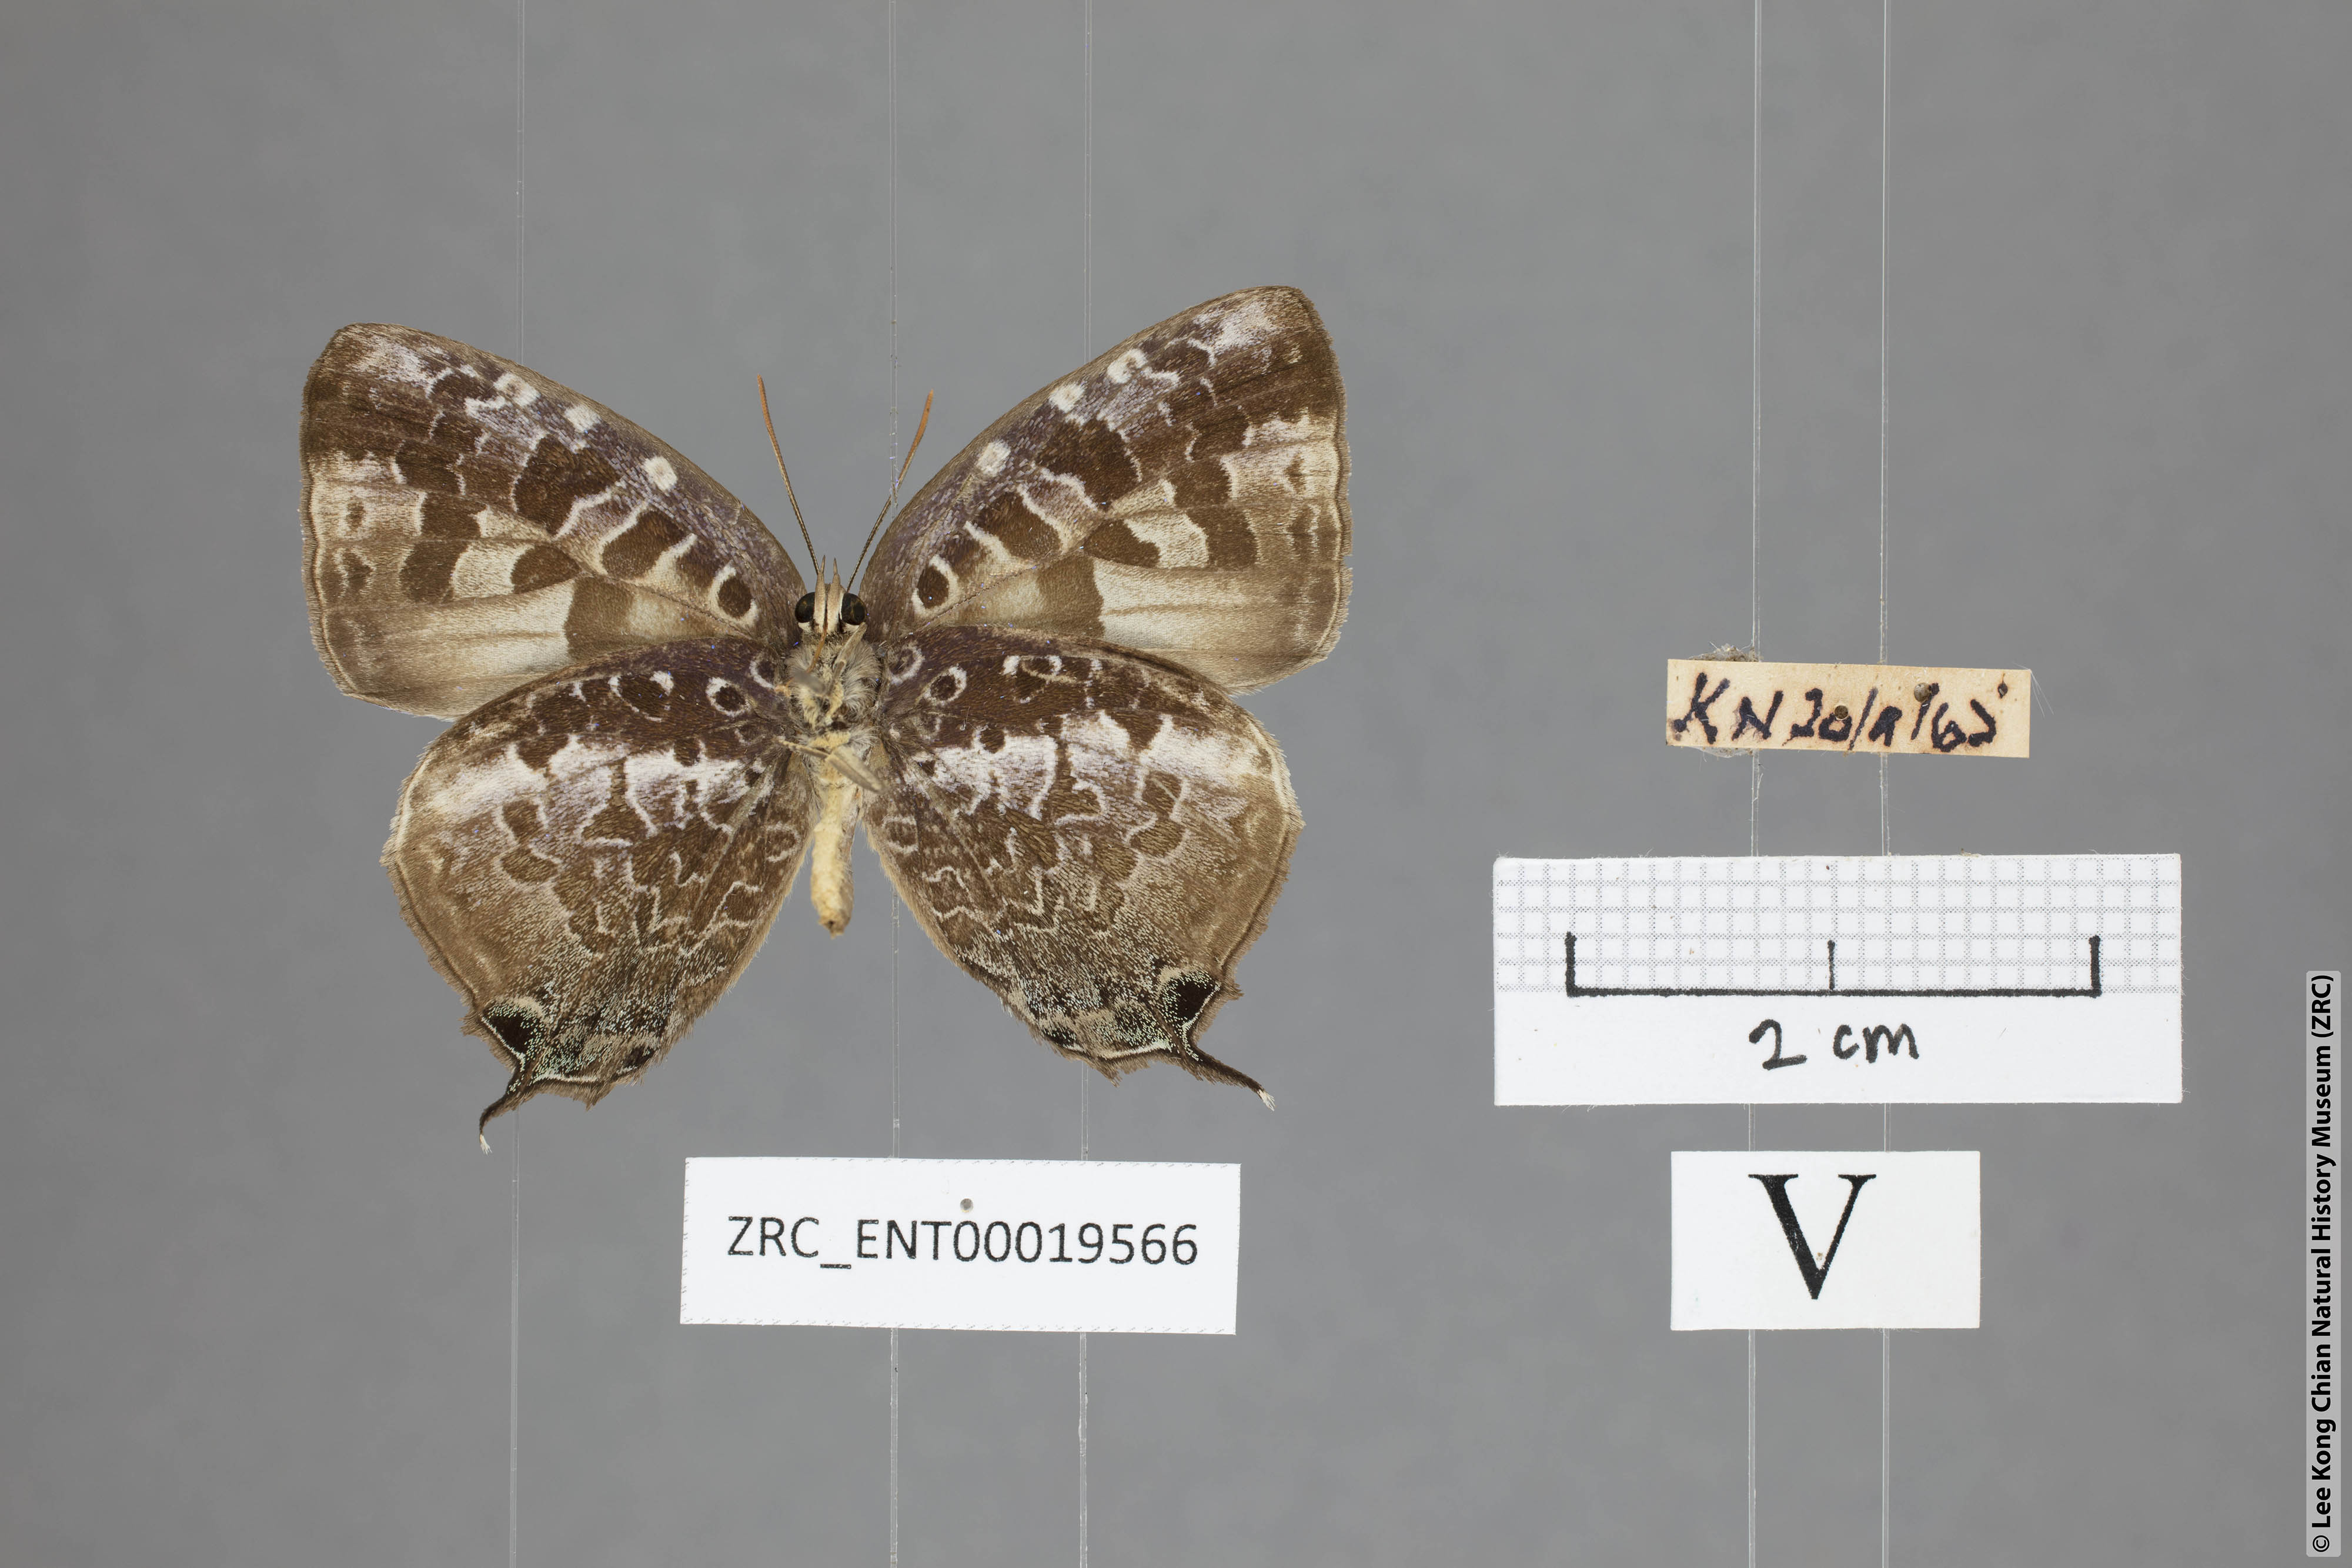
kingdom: Animalia
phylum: Arthropoda
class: Insecta
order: Lepidoptera
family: Lycaenidae
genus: Arhopala
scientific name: Arhopala ijauensis
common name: White-banded oakblue
